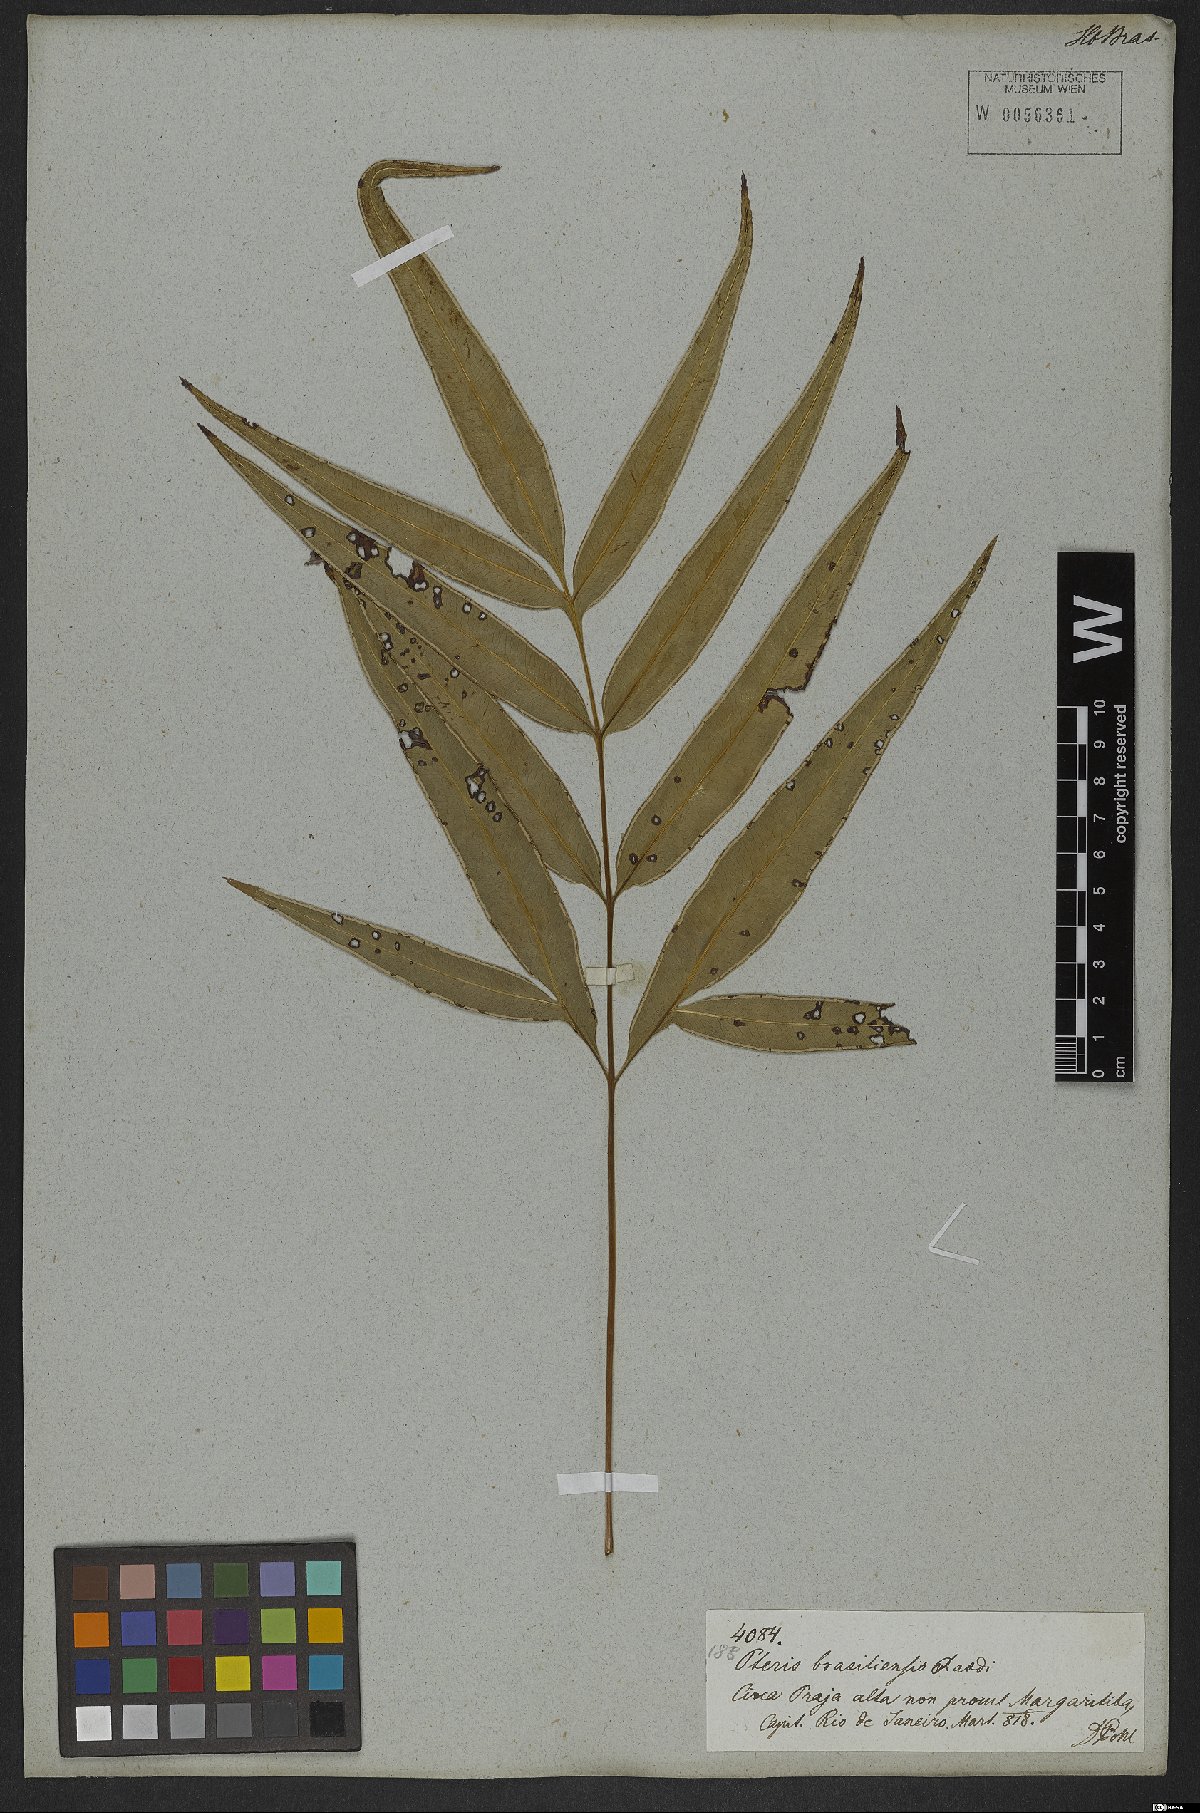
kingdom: Plantae
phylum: Tracheophyta
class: Polypodiopsida
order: Polypodiales
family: Pteridaceae
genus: Pteris
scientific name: Pteris denticulata
